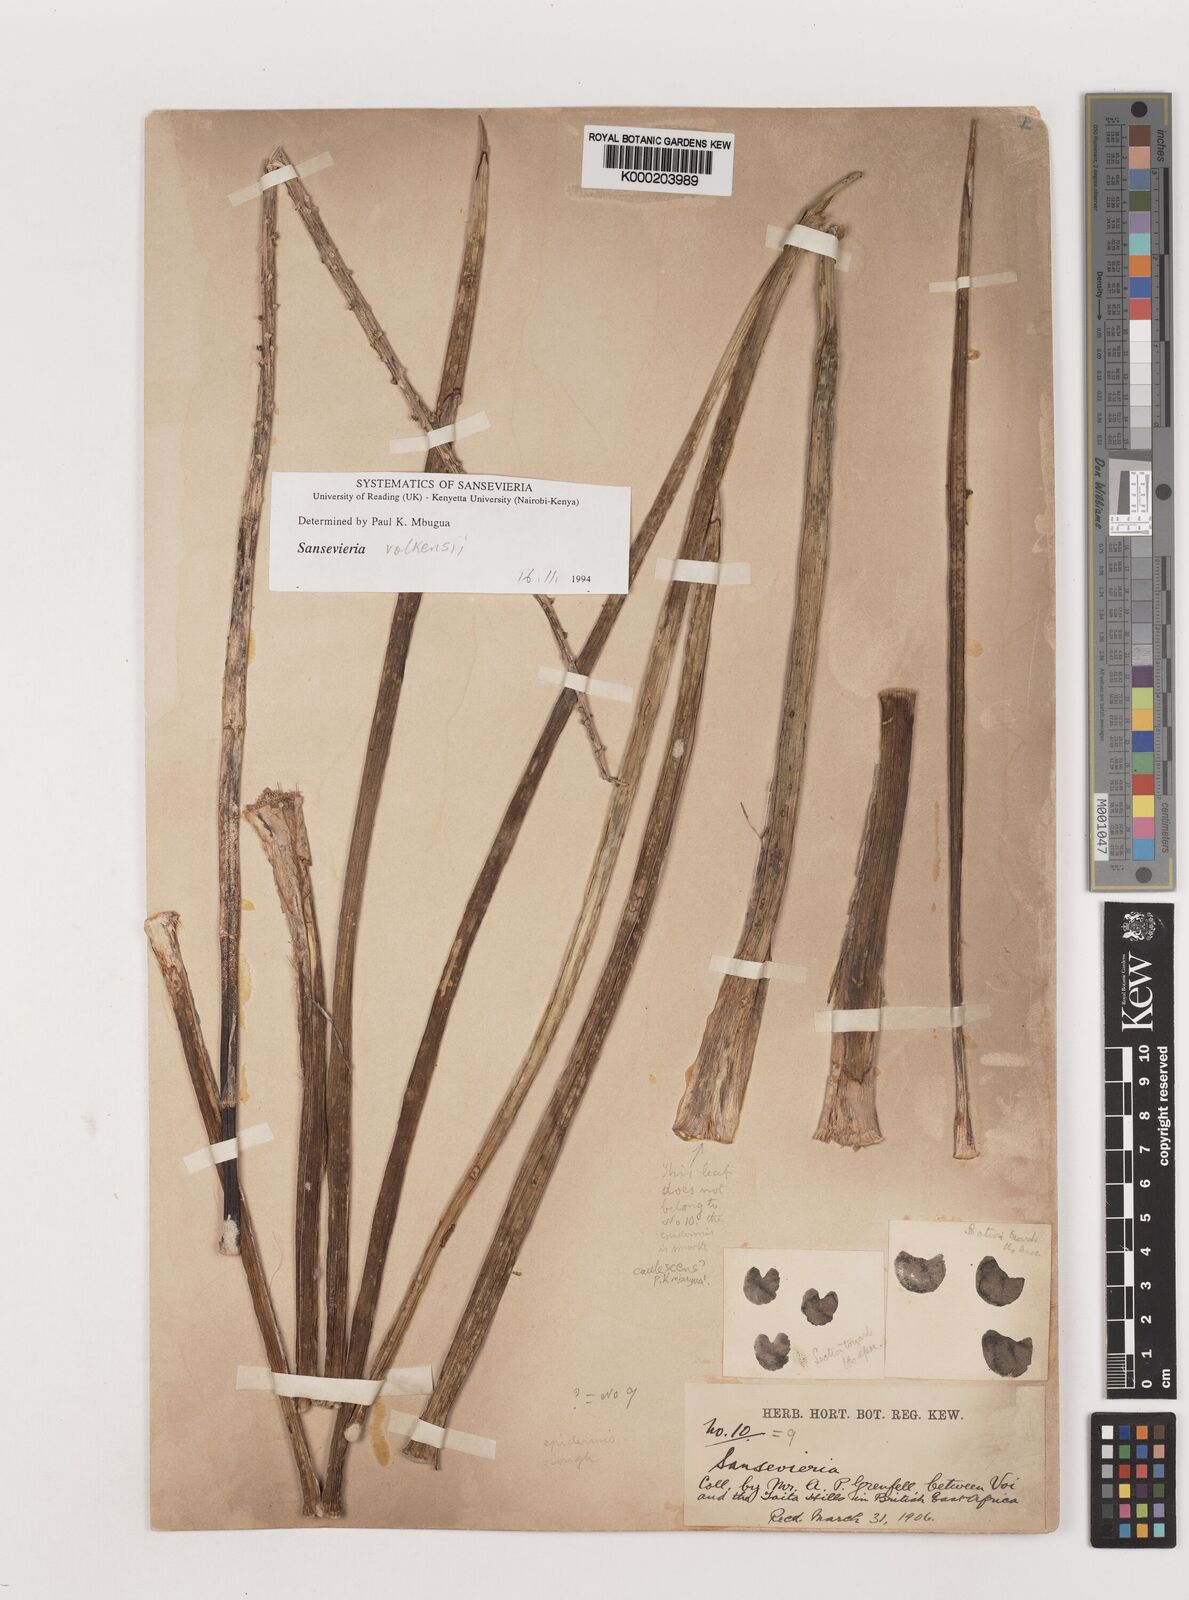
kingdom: Plantae
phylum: Tracheophyta
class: Liliopsida
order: Asparagales
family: Asparagaceae
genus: Dracaena
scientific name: Dracaena
